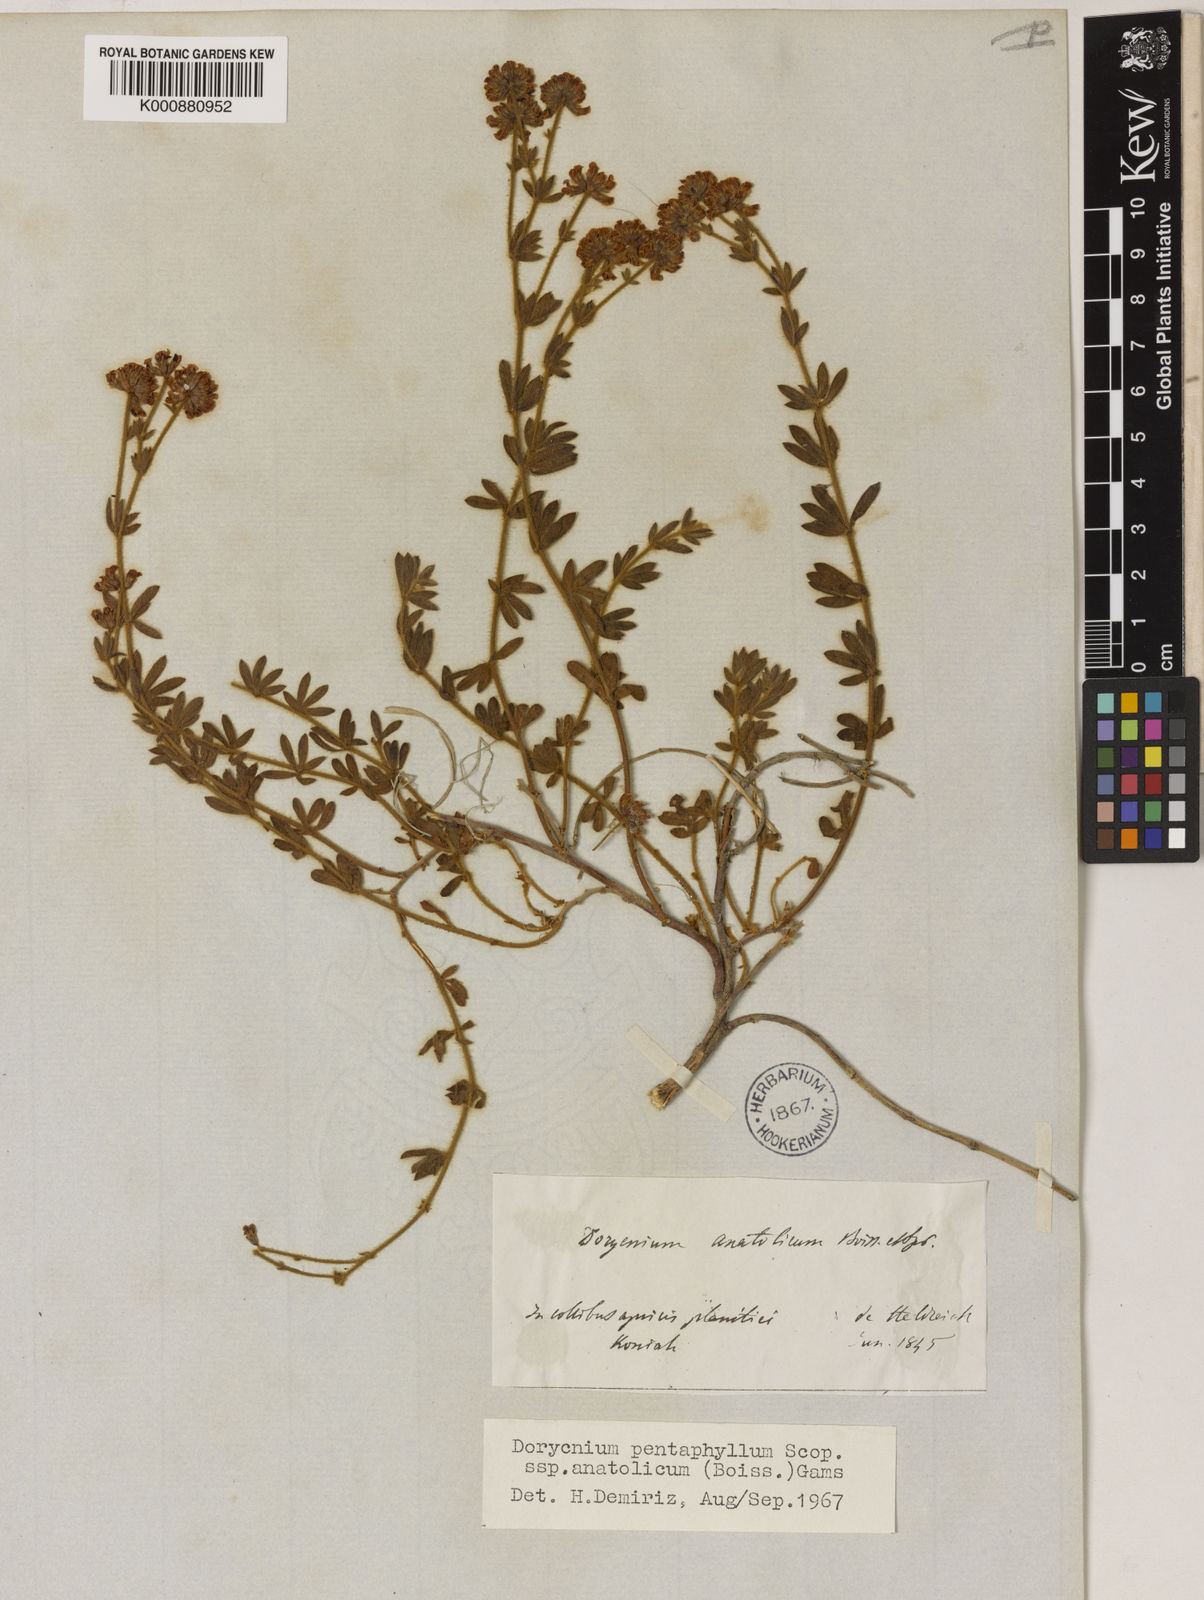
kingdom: Plantae
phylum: Tracheophyta
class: Magnoliopsida
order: Fabales
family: Fabaceae
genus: Lotus
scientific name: Lotus Dorycnium anatolicum
